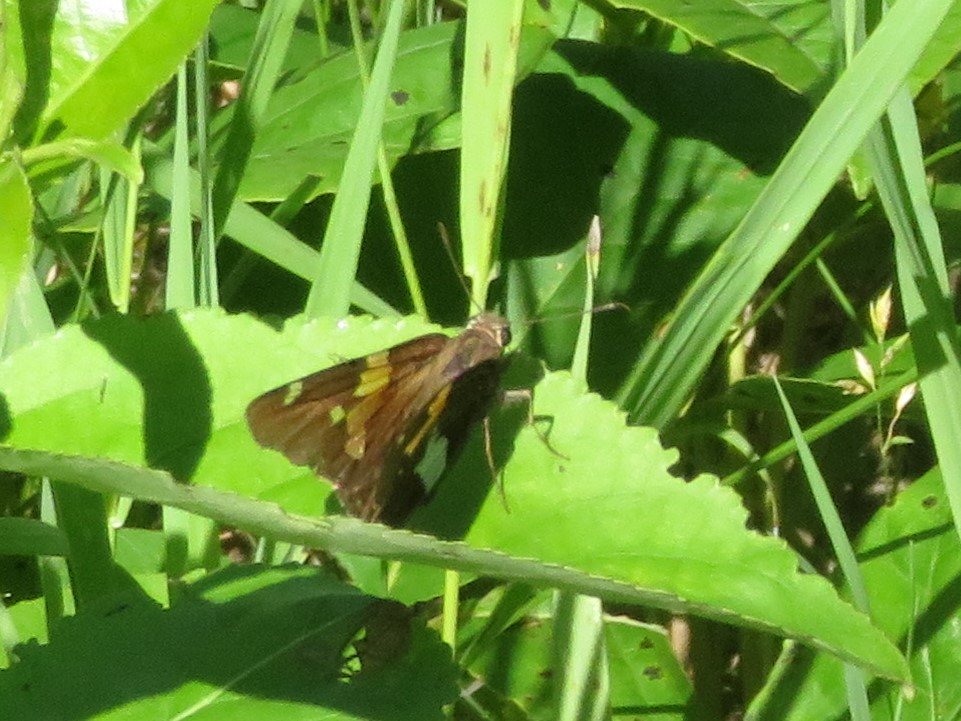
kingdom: Animalia
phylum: Arthropoda
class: Insecta
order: Lepidoptera
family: Hesperiidae
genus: Epargyreus
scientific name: Epargyreus clarus
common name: Silver-spotted Skipper
